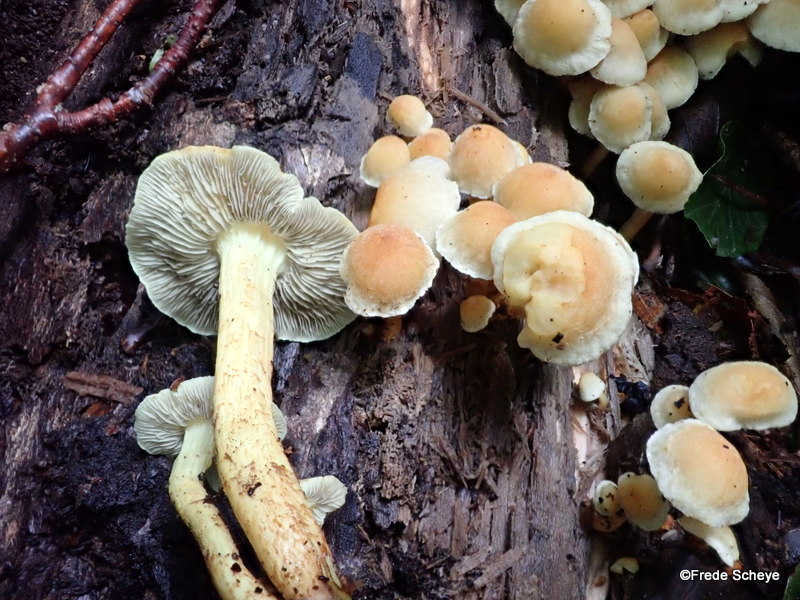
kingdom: Fungi
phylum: Basidiomycota
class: Agaricomycetes
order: Agaricales
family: Strophariaceae
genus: Hypholoma
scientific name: Hypholoma fasciculare
